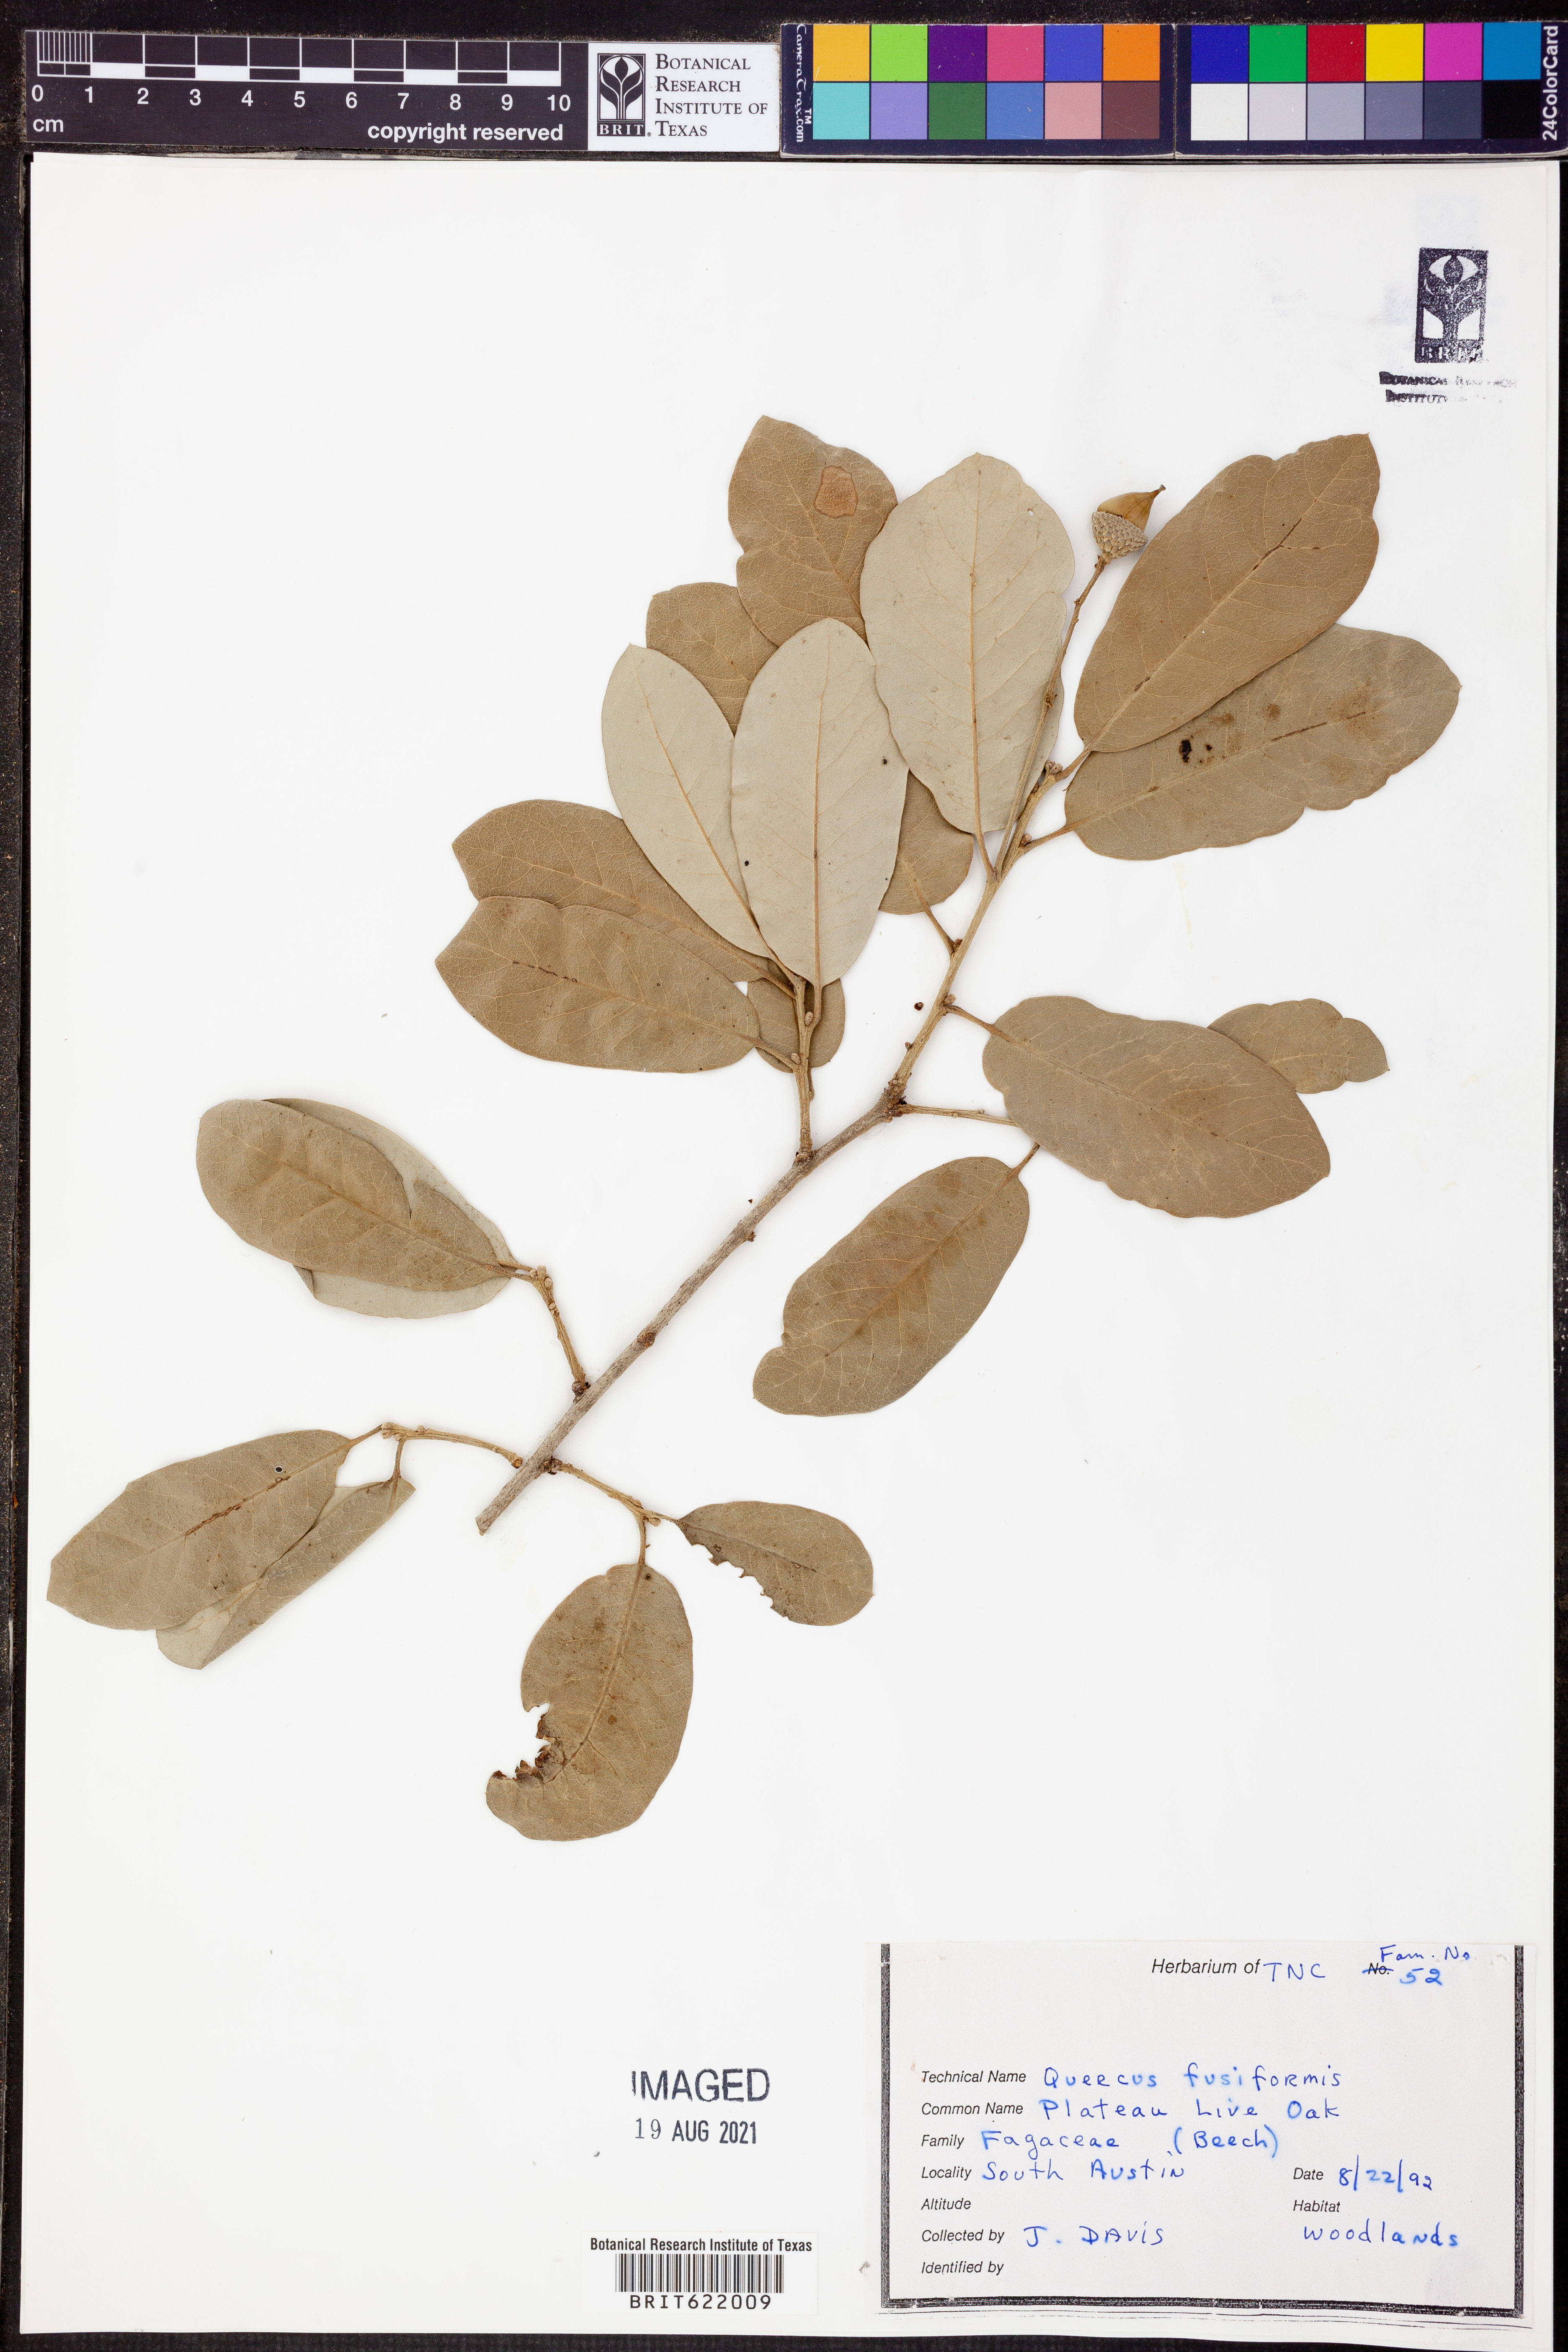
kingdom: Plantae
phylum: Tracheophyta
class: Magnoliopsida
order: Fagales
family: Fagaceae
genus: Quercus
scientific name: Quercus fusiformis
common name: Texas live oak
